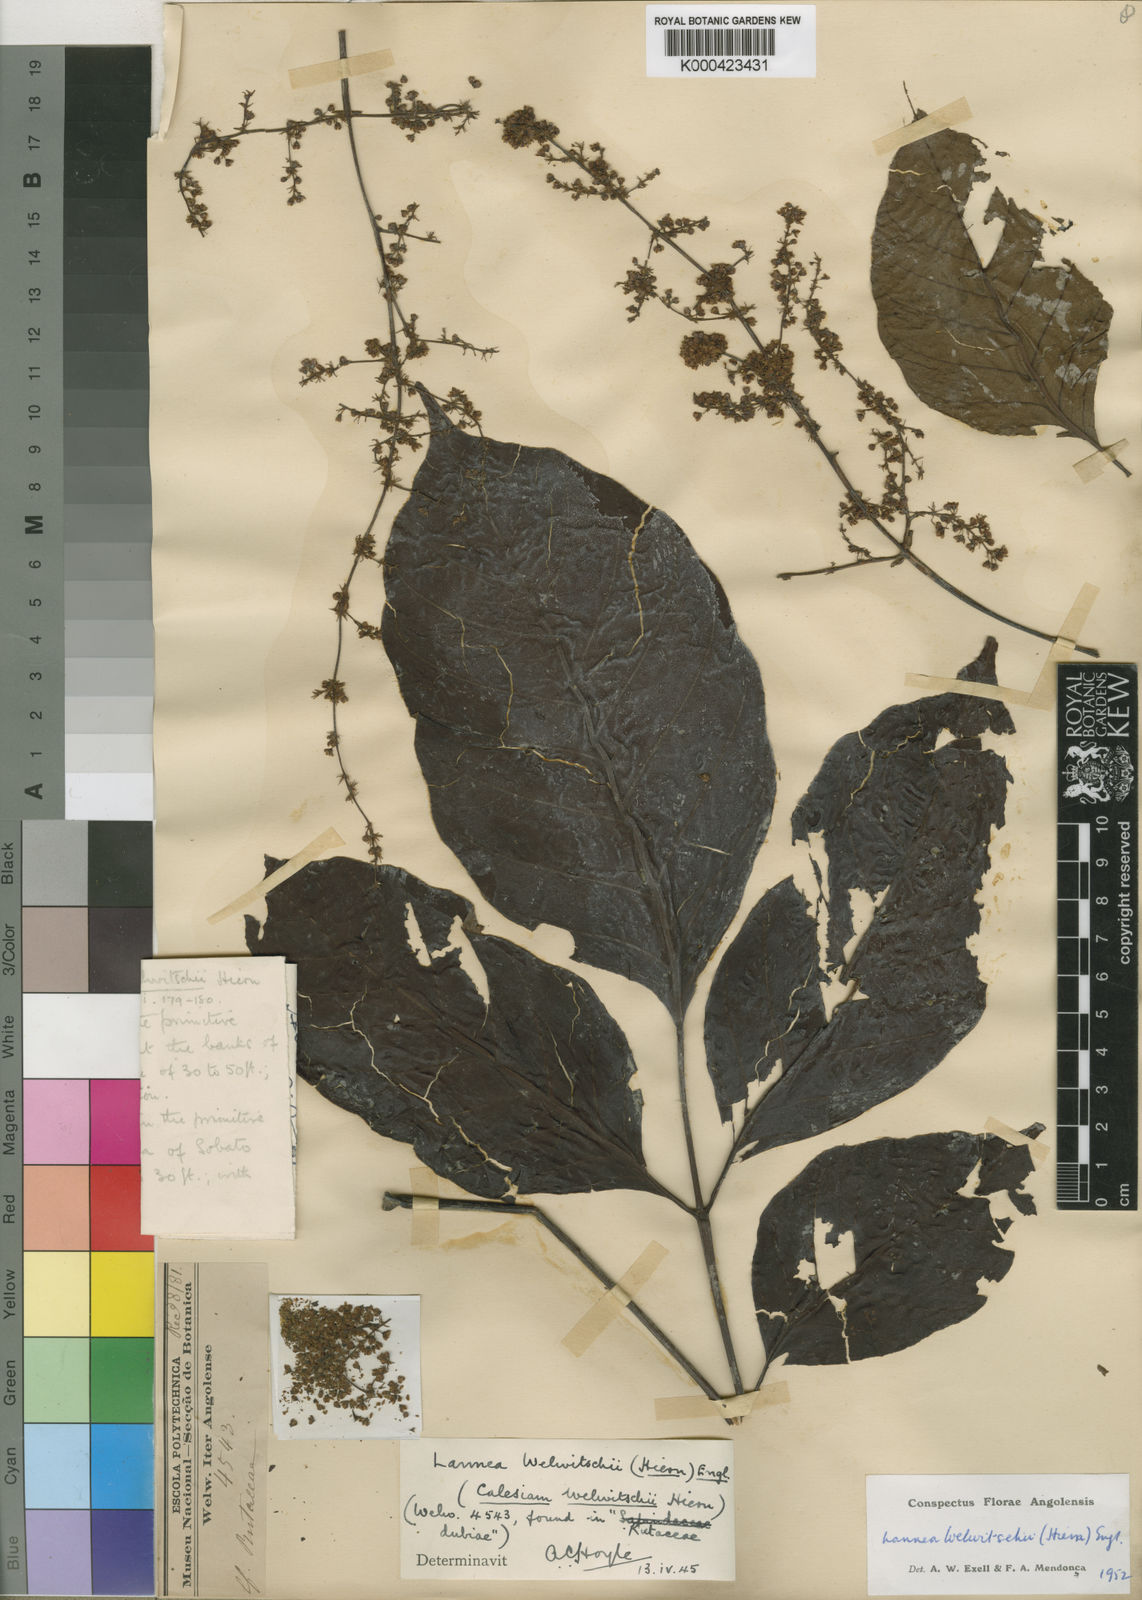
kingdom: Plantae
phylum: Tracheophyta
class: Magnoliopsida
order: Sapindales
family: Anacardiaceae
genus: Lannea
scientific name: Lannea welwitschii
